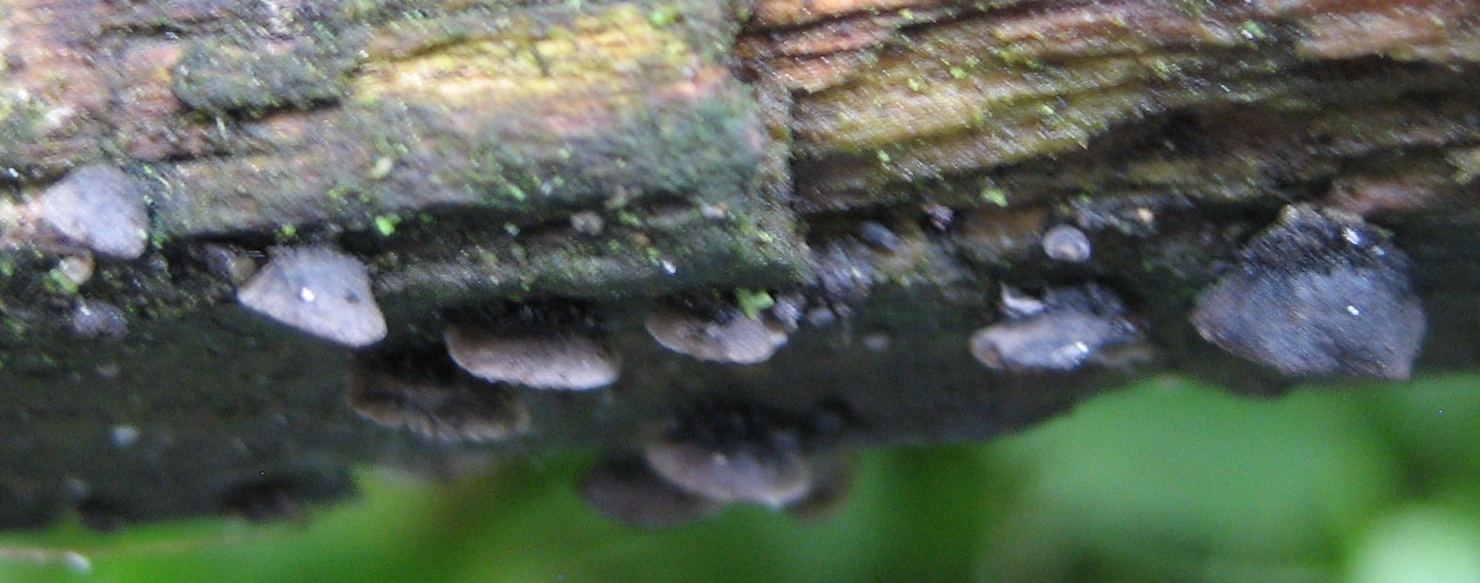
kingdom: Fungi
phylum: Basidiomycota
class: Agaricomycetes
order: Agaricales
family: Pleurotaceae
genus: Resupinatus
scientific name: Resupinatus trichotis
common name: mørkfiltet barkhat
